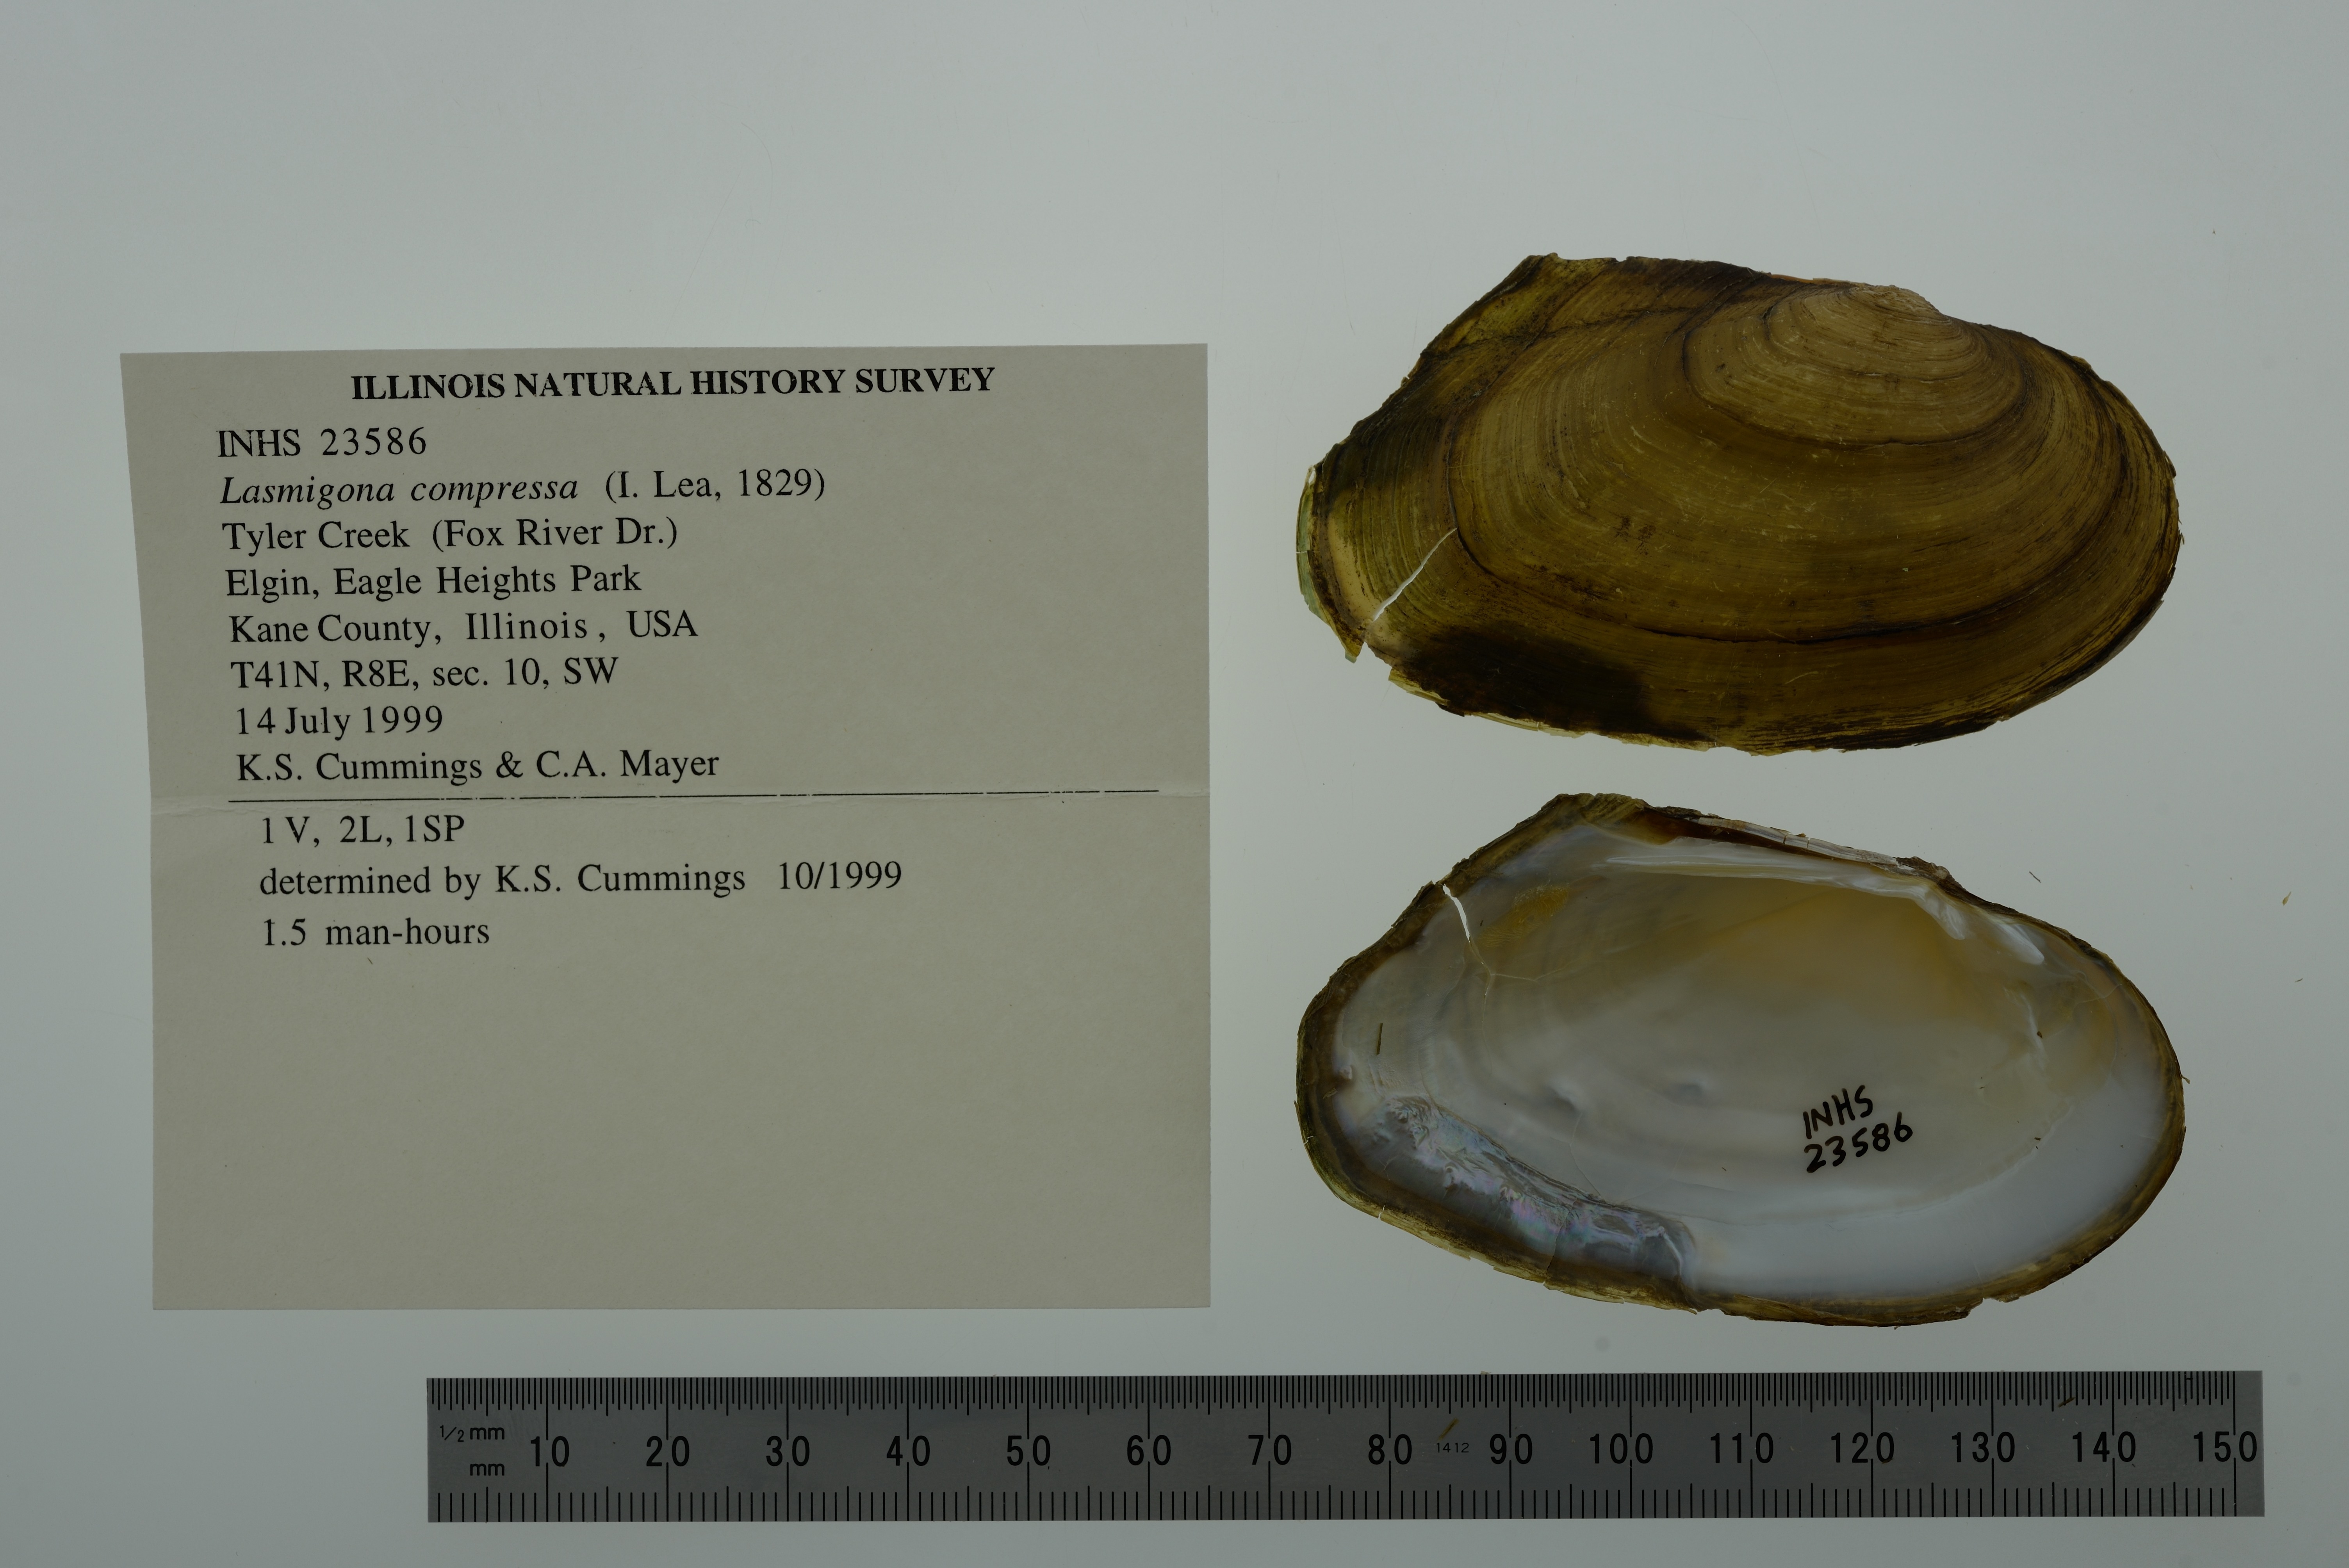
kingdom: Animalia
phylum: Mollusca
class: Bivalvia
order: Unionida
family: Unionidae
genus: Lasmigona
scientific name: Lasmigona compressa
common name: Creek heelsplitter
